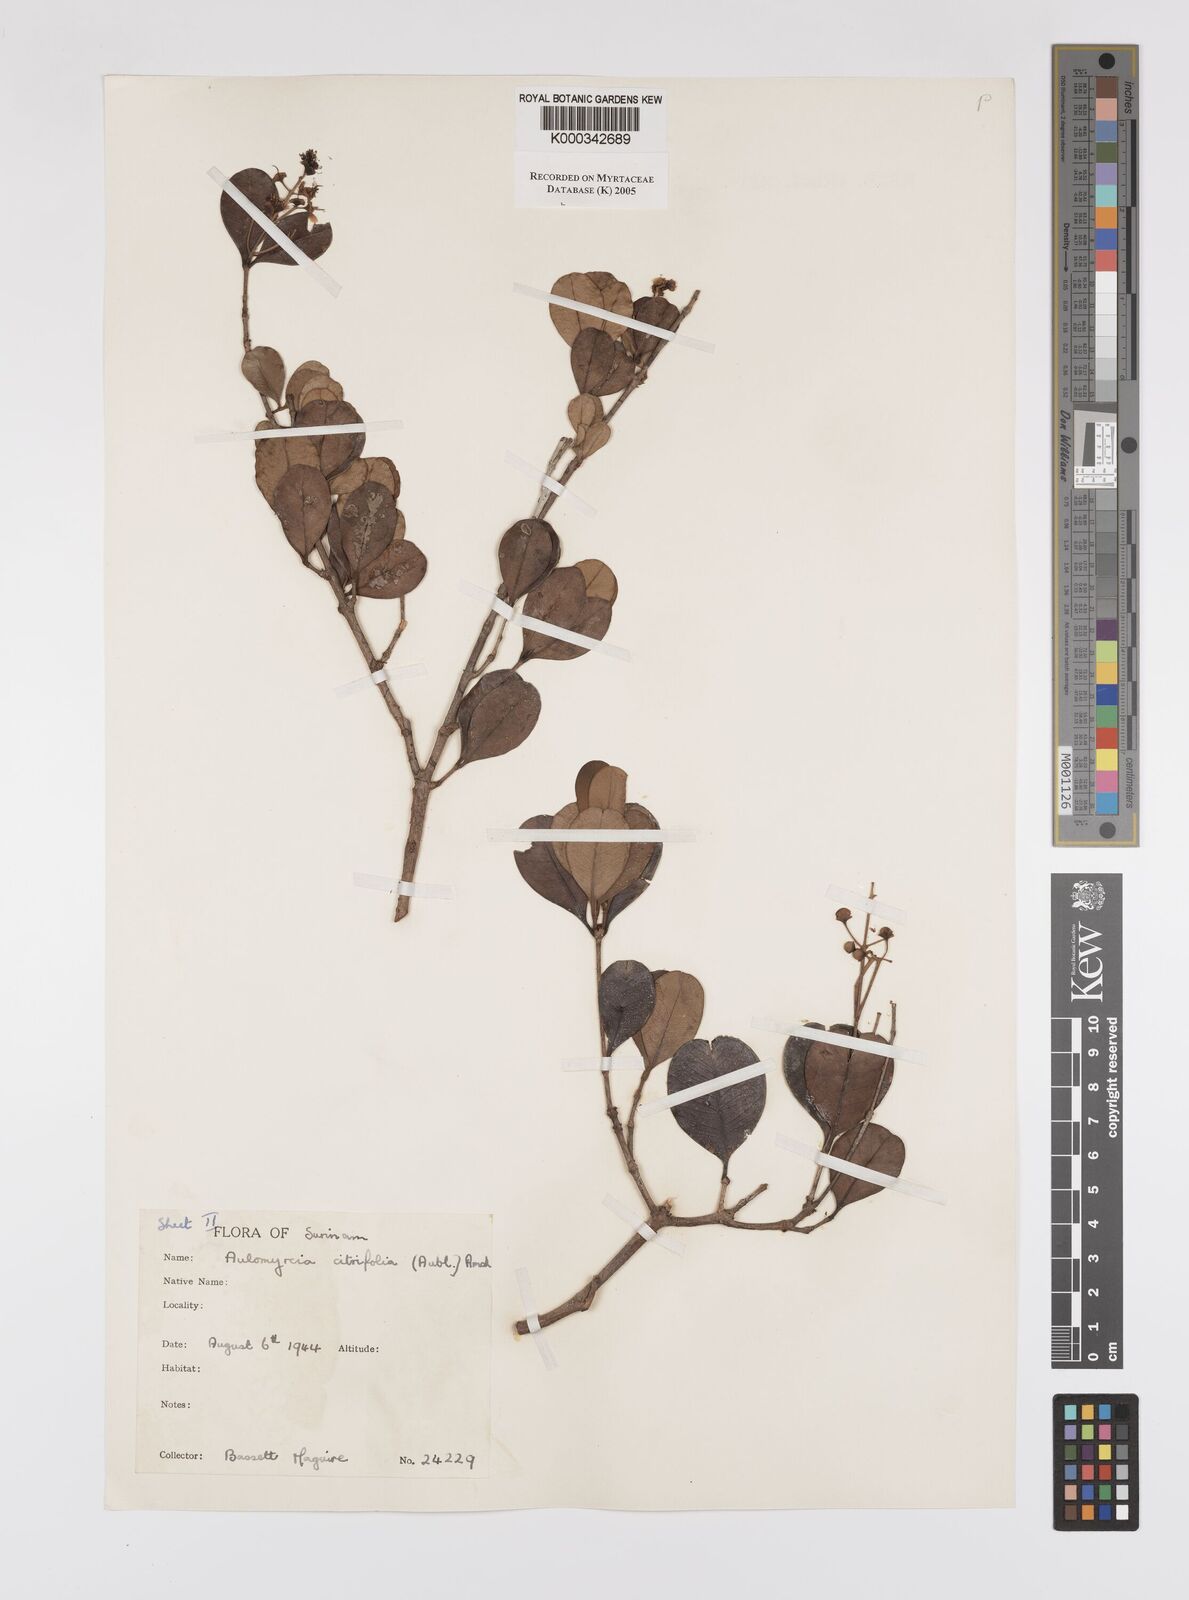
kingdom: Plantae
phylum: Tracheophyta
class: Magnoliopsida
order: Myrtales
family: Myrtaceae
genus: Myrcia
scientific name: Myrcia guianensis
